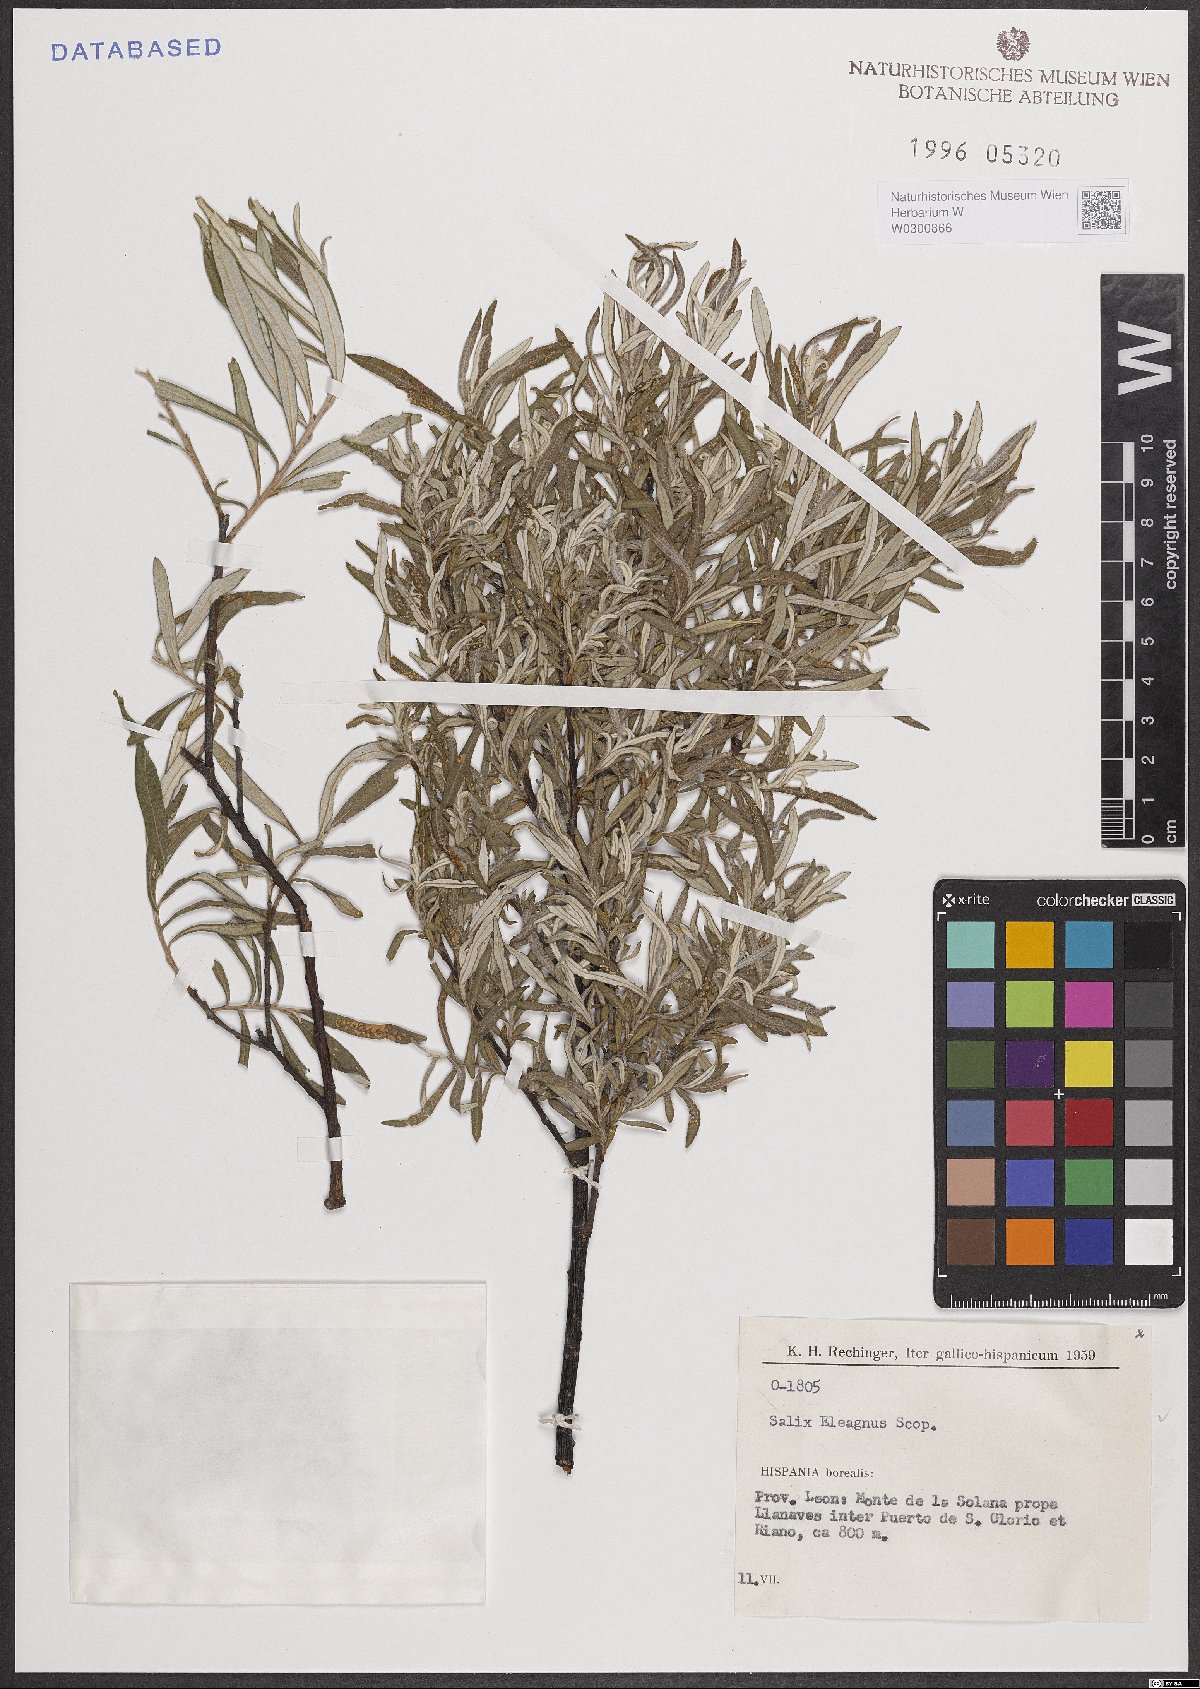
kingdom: Plantae
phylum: Tracheophyta
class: Magnoliopsida
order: Malpighiales
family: Salicaceae
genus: Salix
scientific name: Salix eleagnos
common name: Elaeagnus willow
